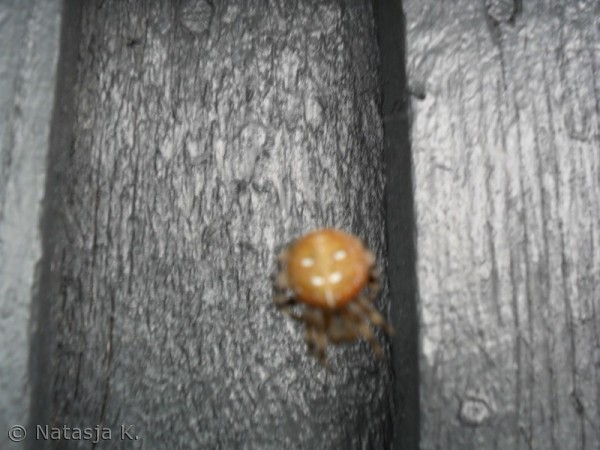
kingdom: Animalia
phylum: Arthropoda
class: Arachnida
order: Araneae
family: Araneidae
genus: Araneus
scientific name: Araneus quadratus
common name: Kvadratedderkop
